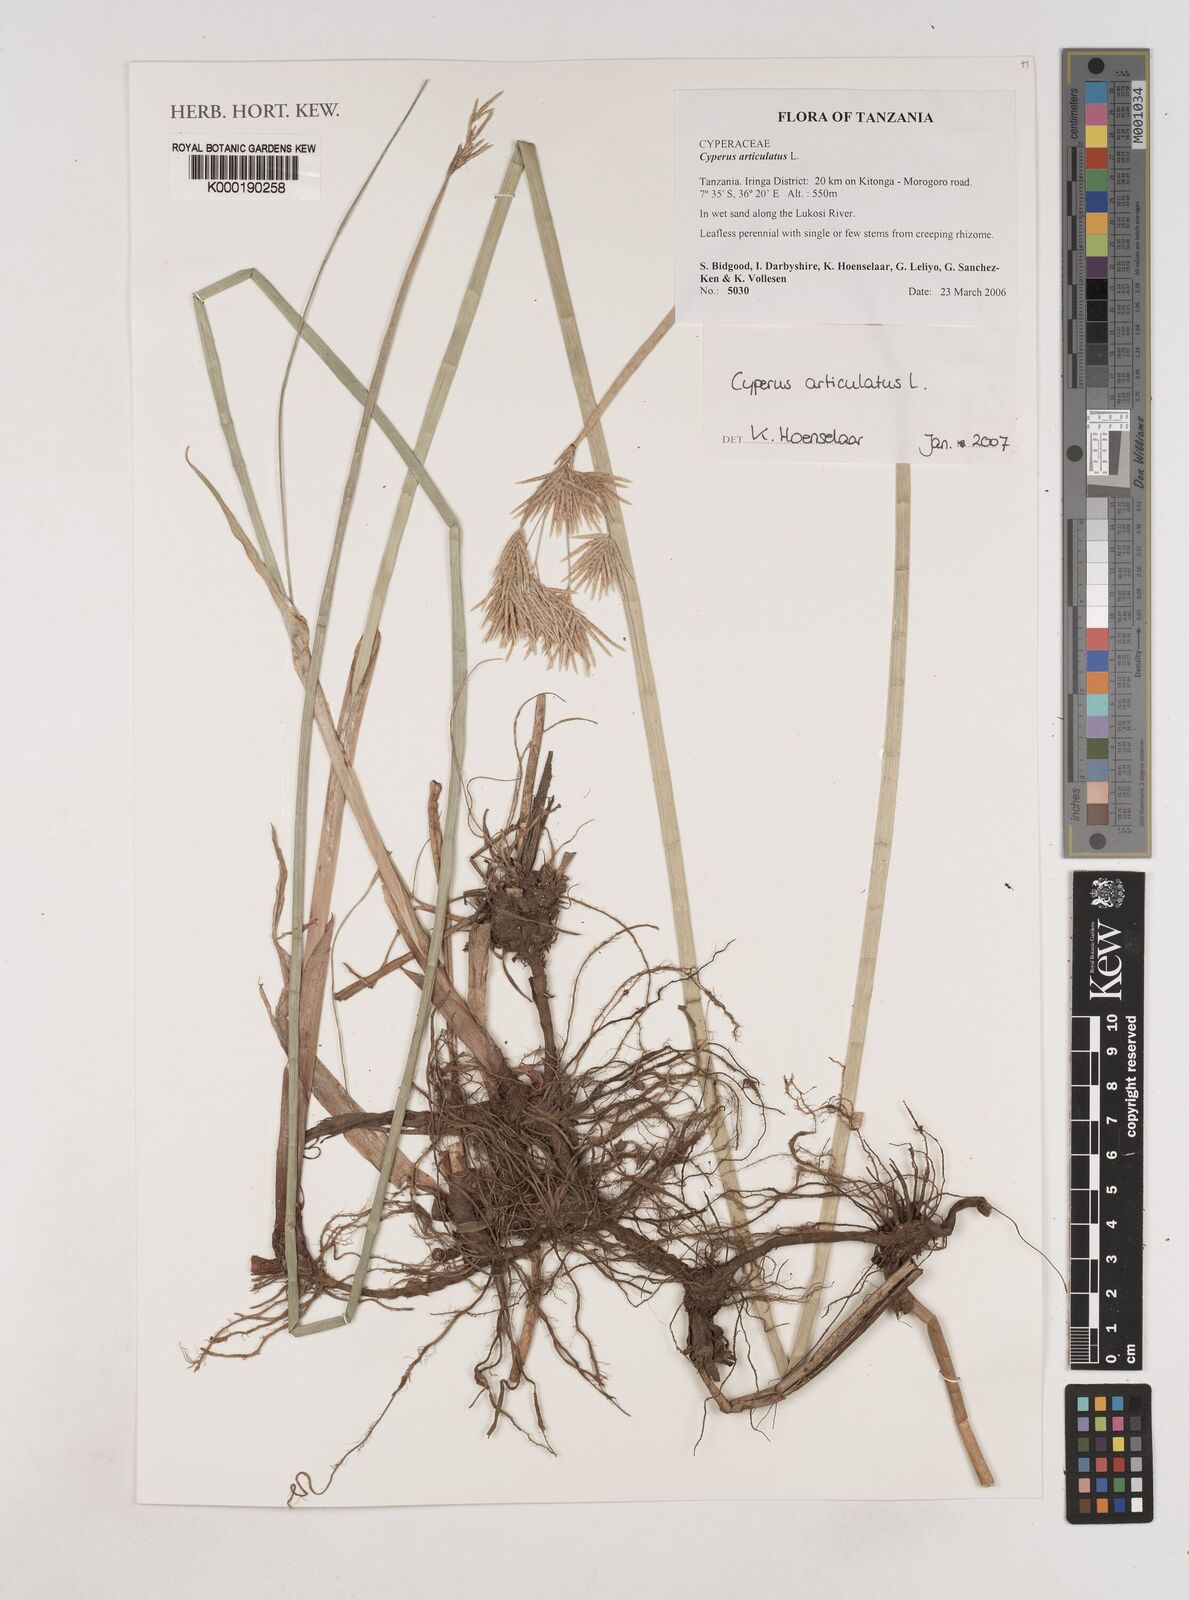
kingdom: Plantae
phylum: Tracheophyta
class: Liliopsida
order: Poales
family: Cyperaceae
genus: Cyperus
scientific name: Cyperus articulatus
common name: Jointed flatsedge
